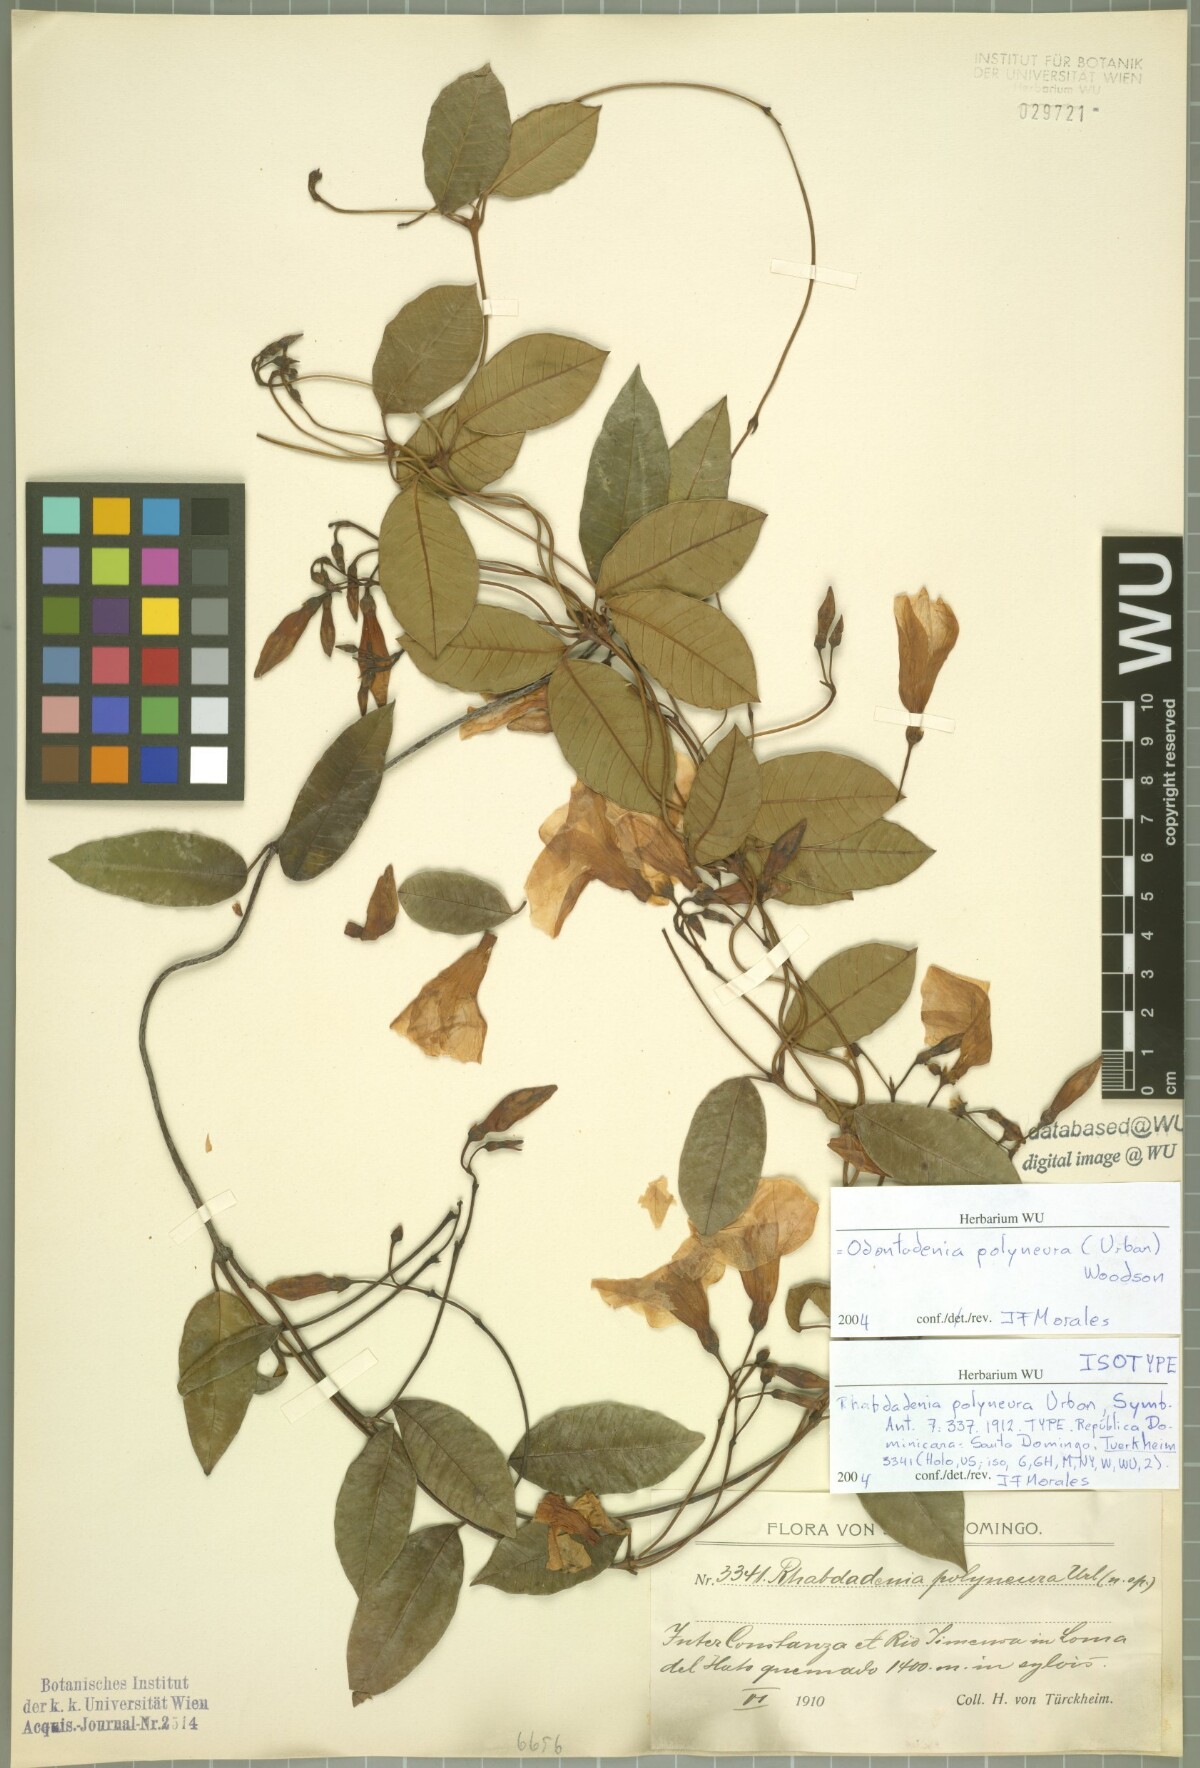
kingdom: Plantae
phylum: Tracheophyta
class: Magnoliopsida
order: Gentianales
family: Apocynaceae
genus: Odontadenia
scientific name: Odontadenia polyneura
